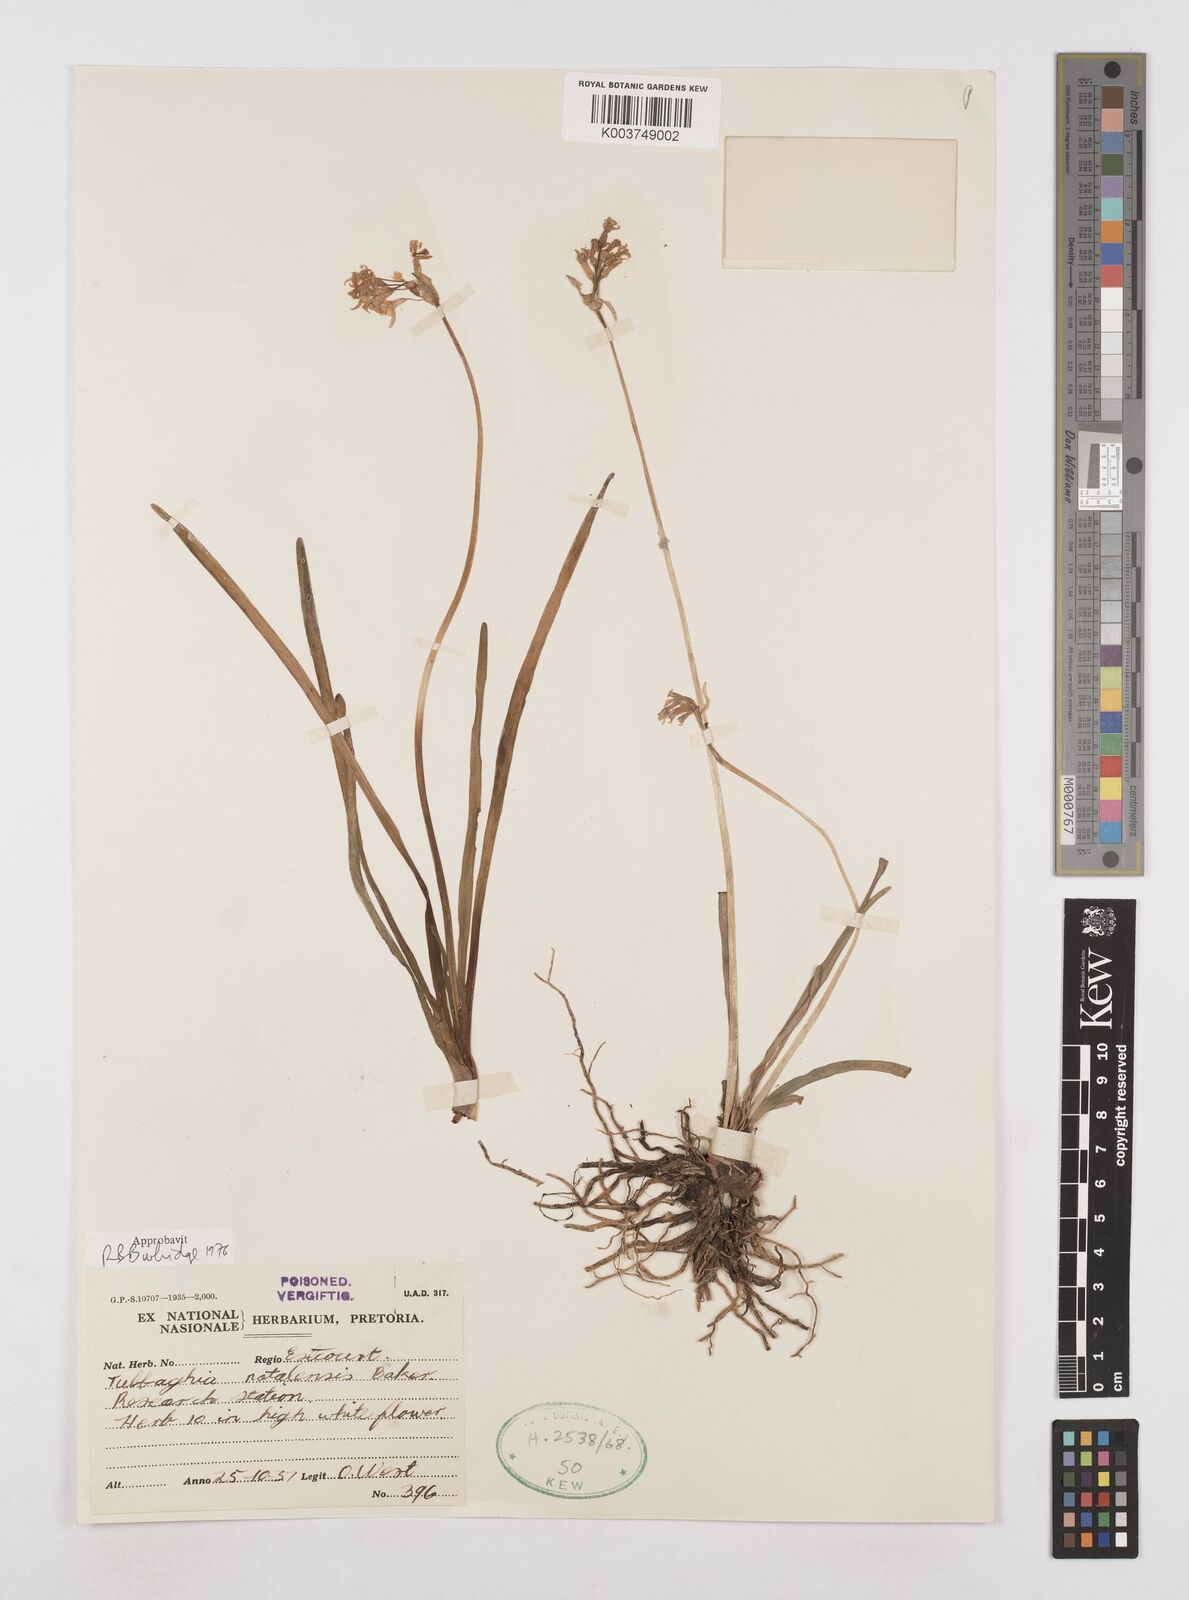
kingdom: Plantae
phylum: Tracheophyta
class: Liliopsida
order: Asparagales
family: Amaryllidaceae
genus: Tulbaghia
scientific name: Tulbaghia natalensis
